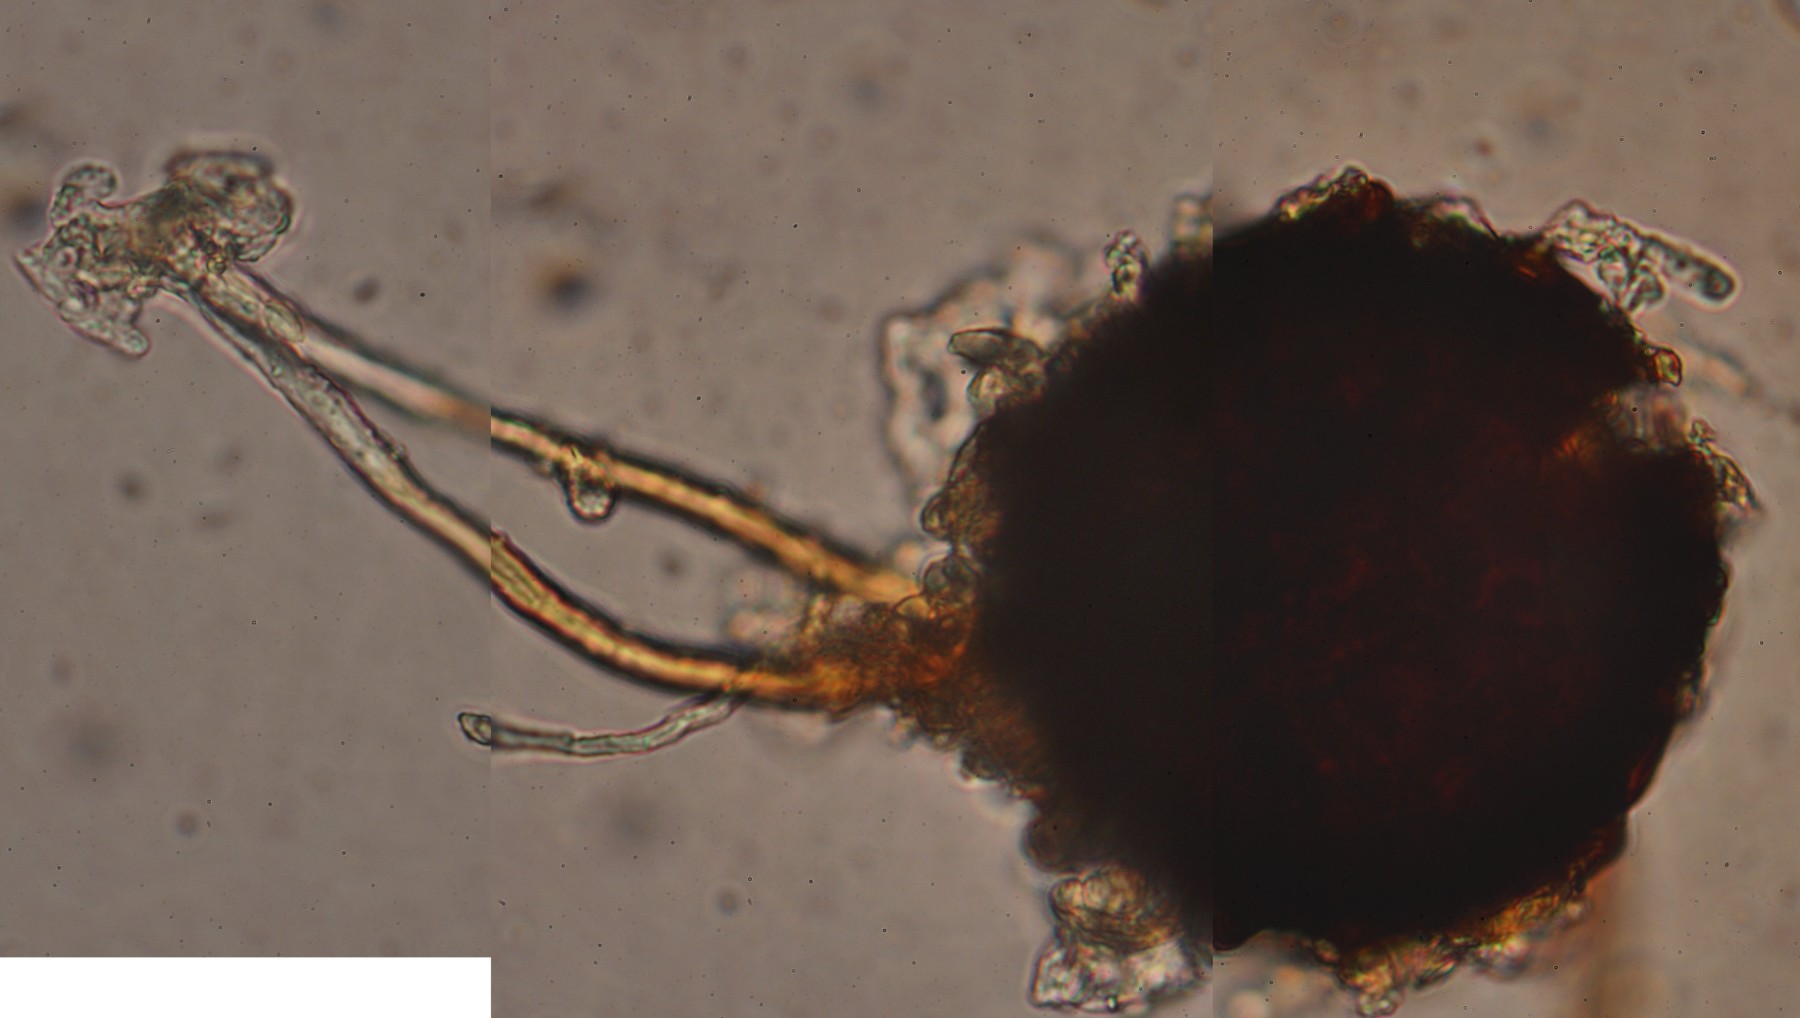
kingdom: Fungi
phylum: Ascomycota
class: Leotiomycetes
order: Helotiales
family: Erysiphaceae
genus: Podosphaera
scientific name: Podosphaera clandestina
